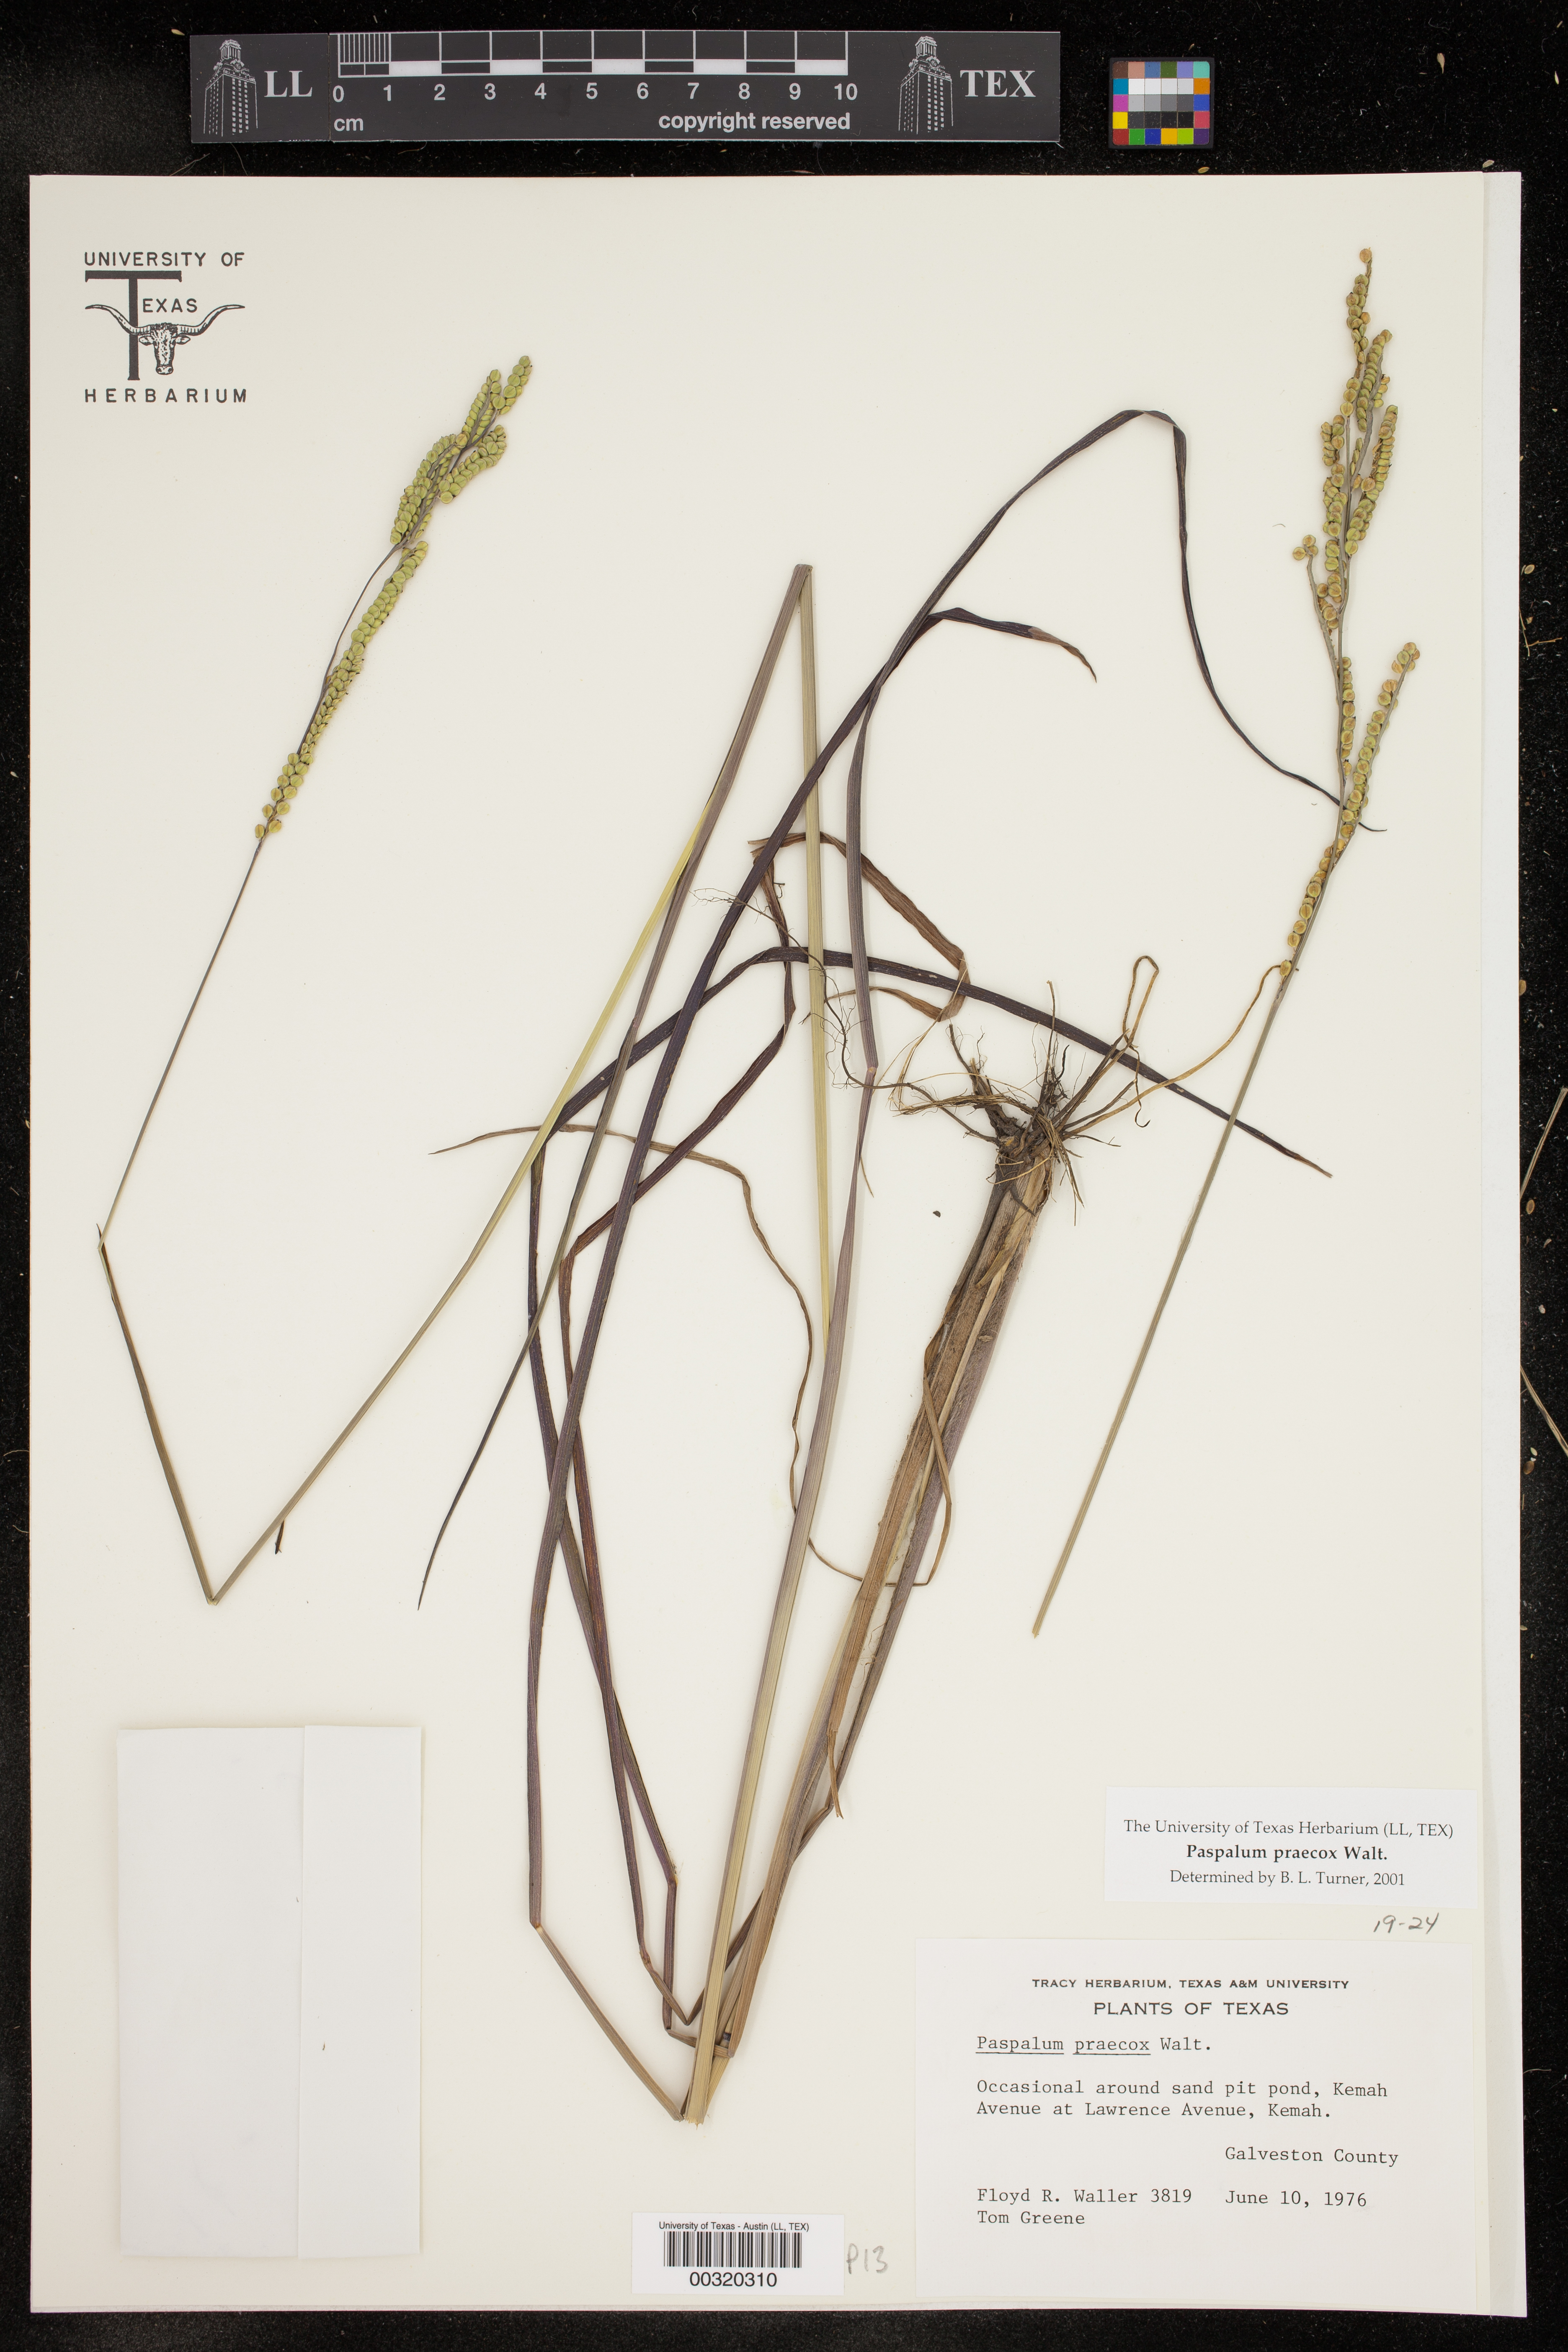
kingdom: Plantae
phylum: Tracheophyta
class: Liliopsida
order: Poales
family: Poaceae
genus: Paspalum
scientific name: Paspalum praecox
